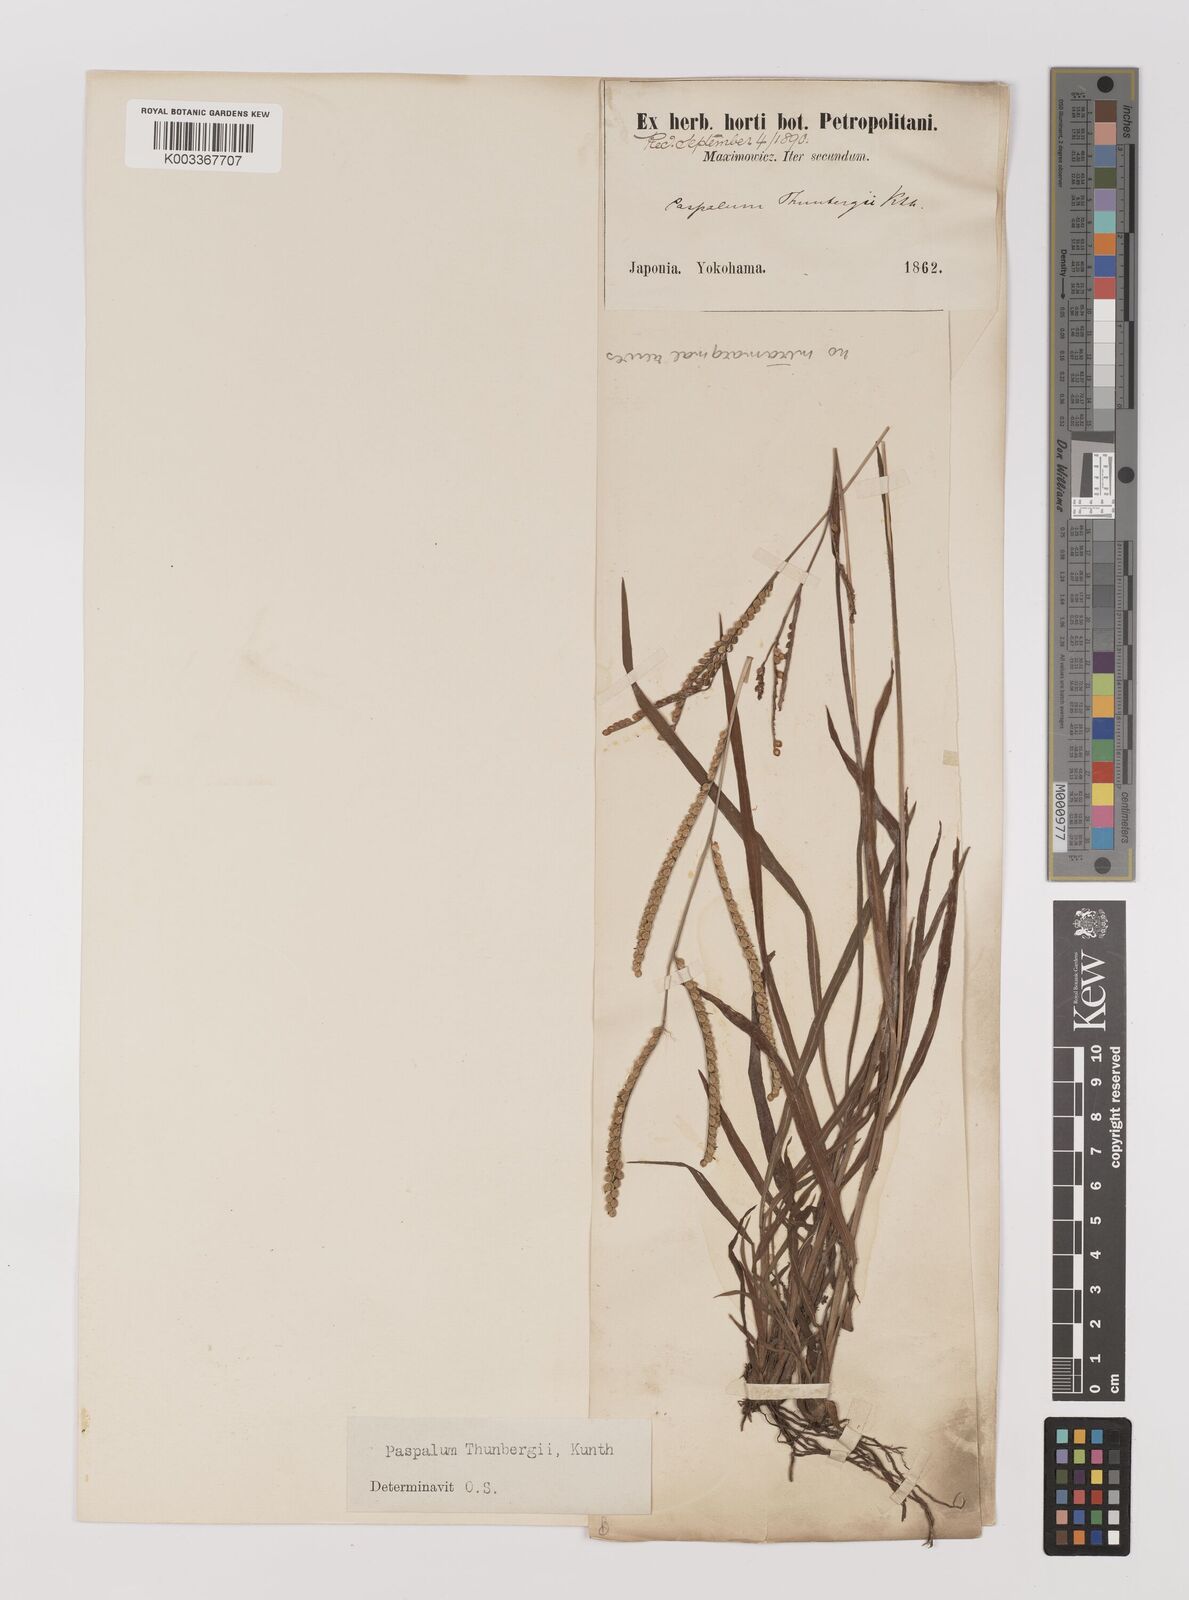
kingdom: Plantae
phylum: Tracheophyta
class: Liliopsida
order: Poales
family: Poaceae
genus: Panicum
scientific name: Panicum
